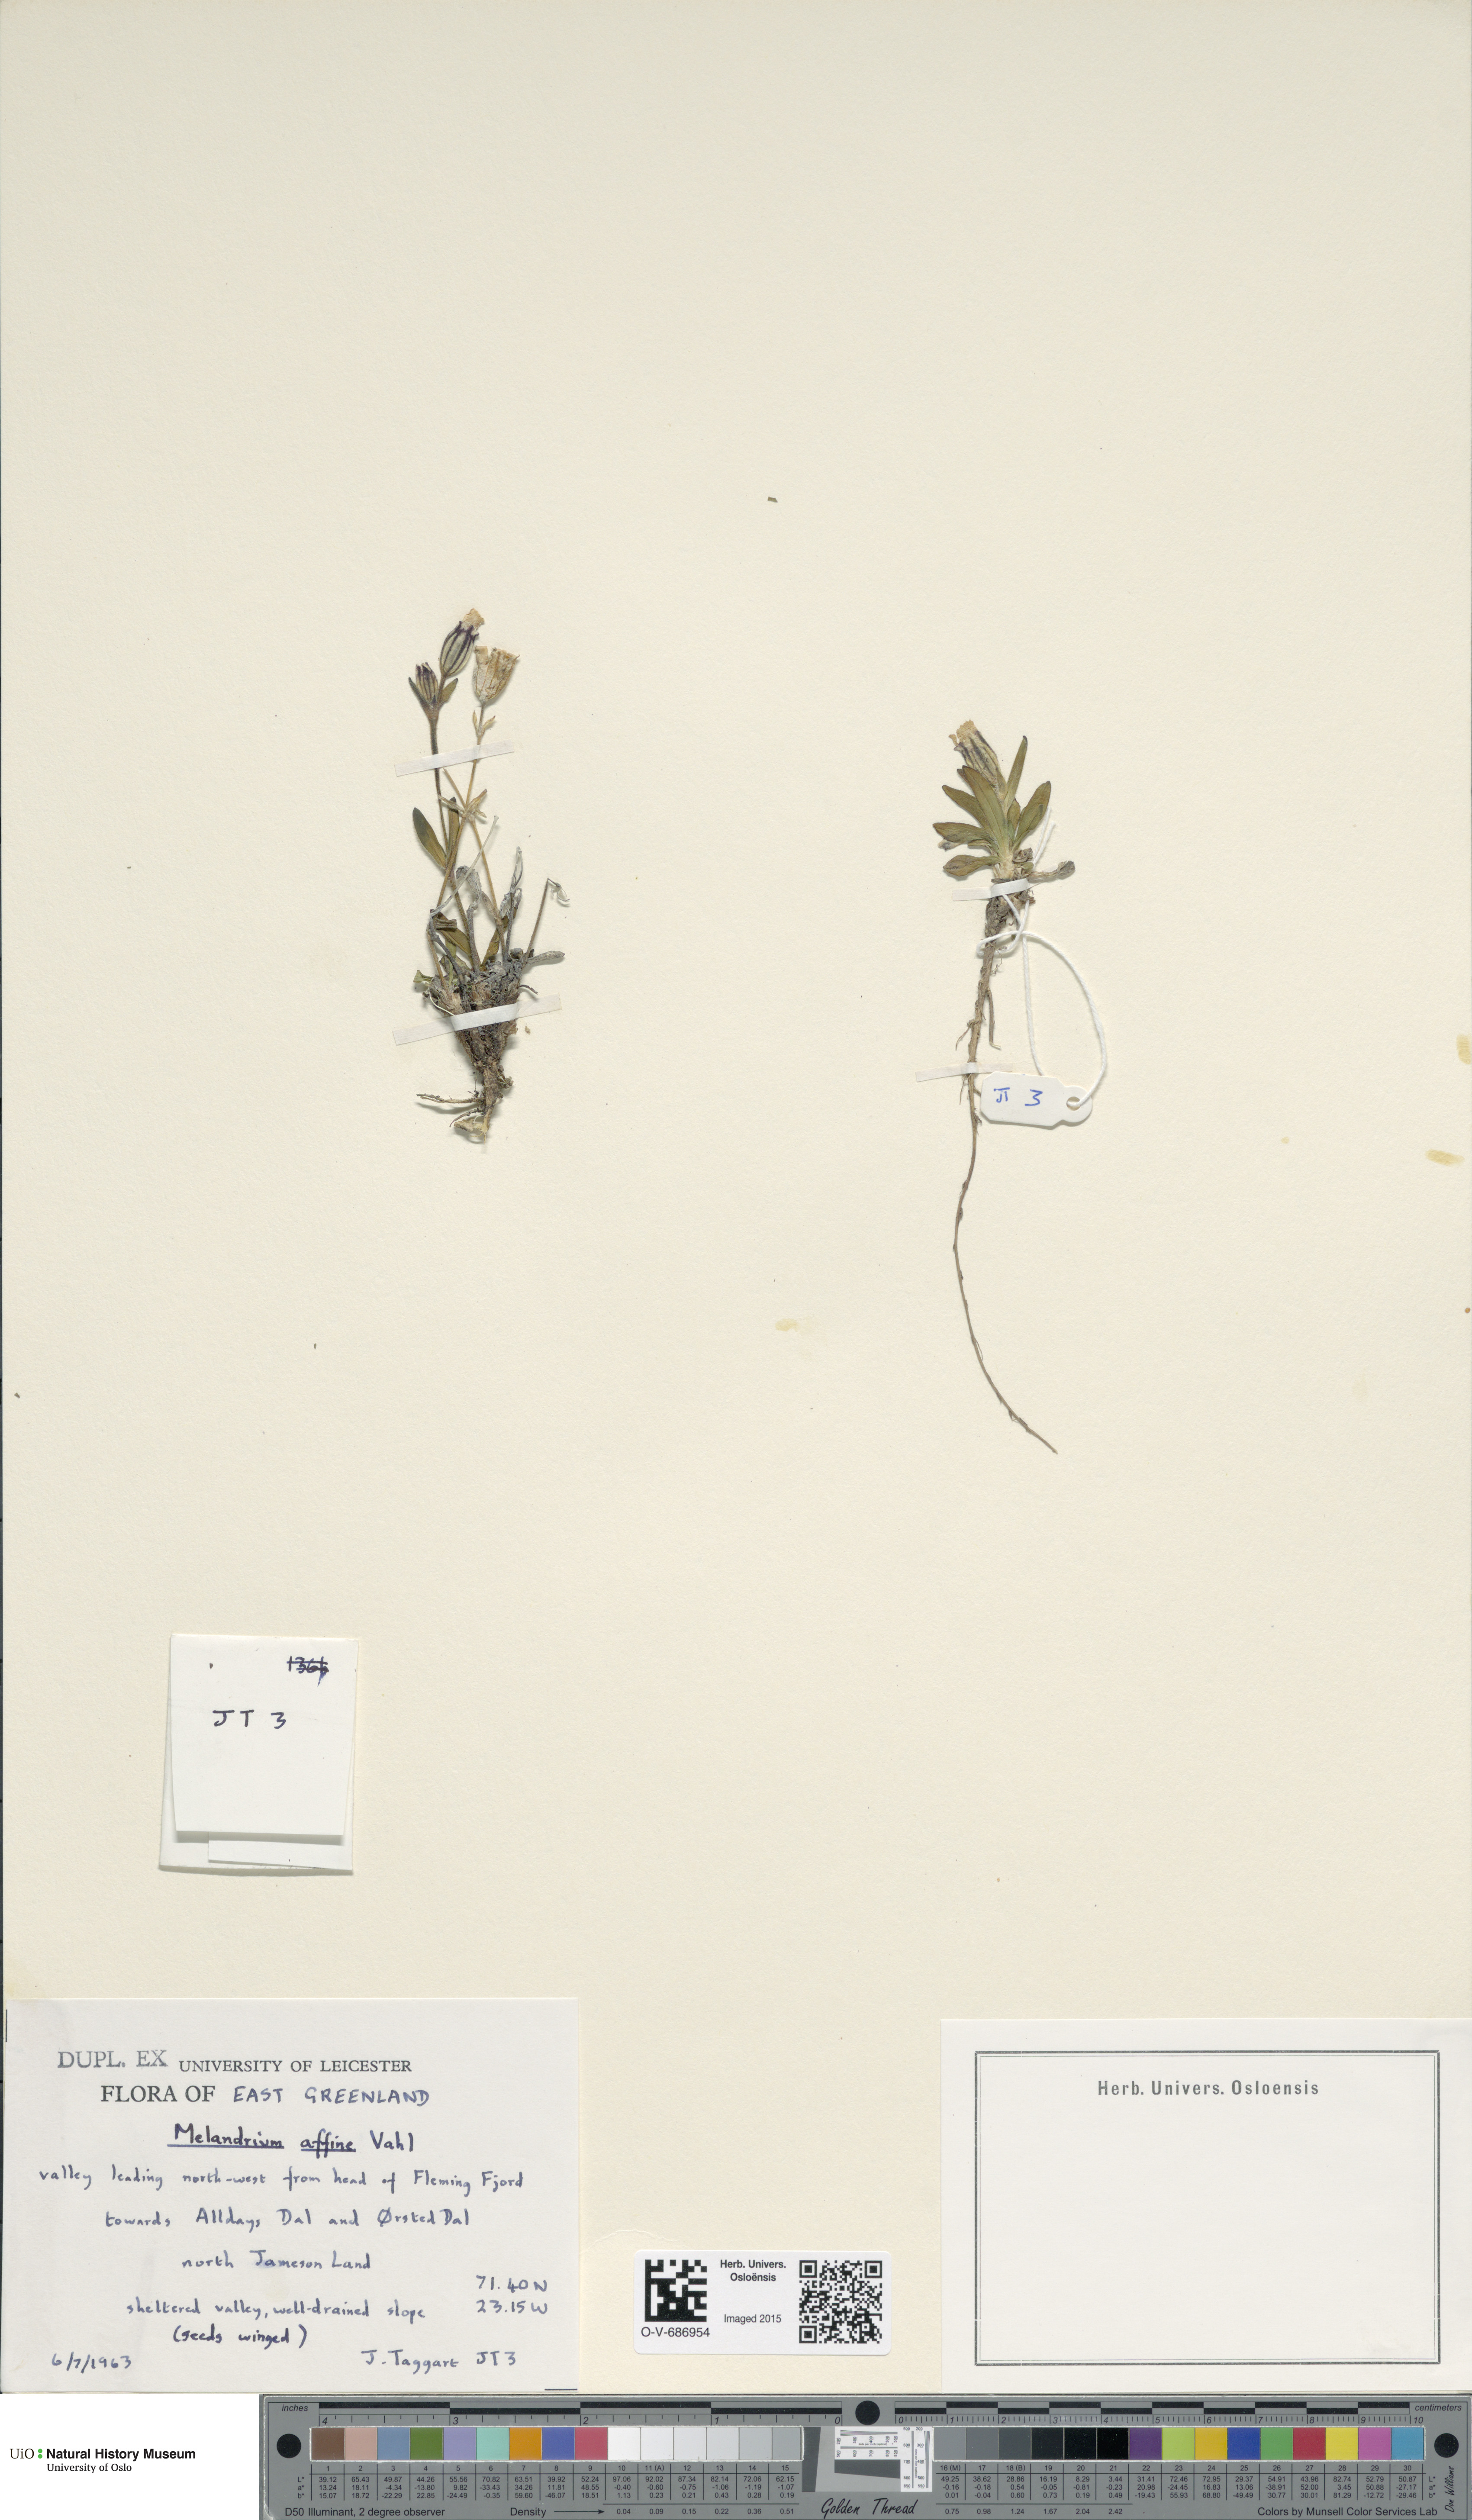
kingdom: Plantae
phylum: Tracheophyta
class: Magnoliopsida
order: Caryophyllales
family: Caryophyllaceae
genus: Silene
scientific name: Silene involucrata
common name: Greater arctic campion
